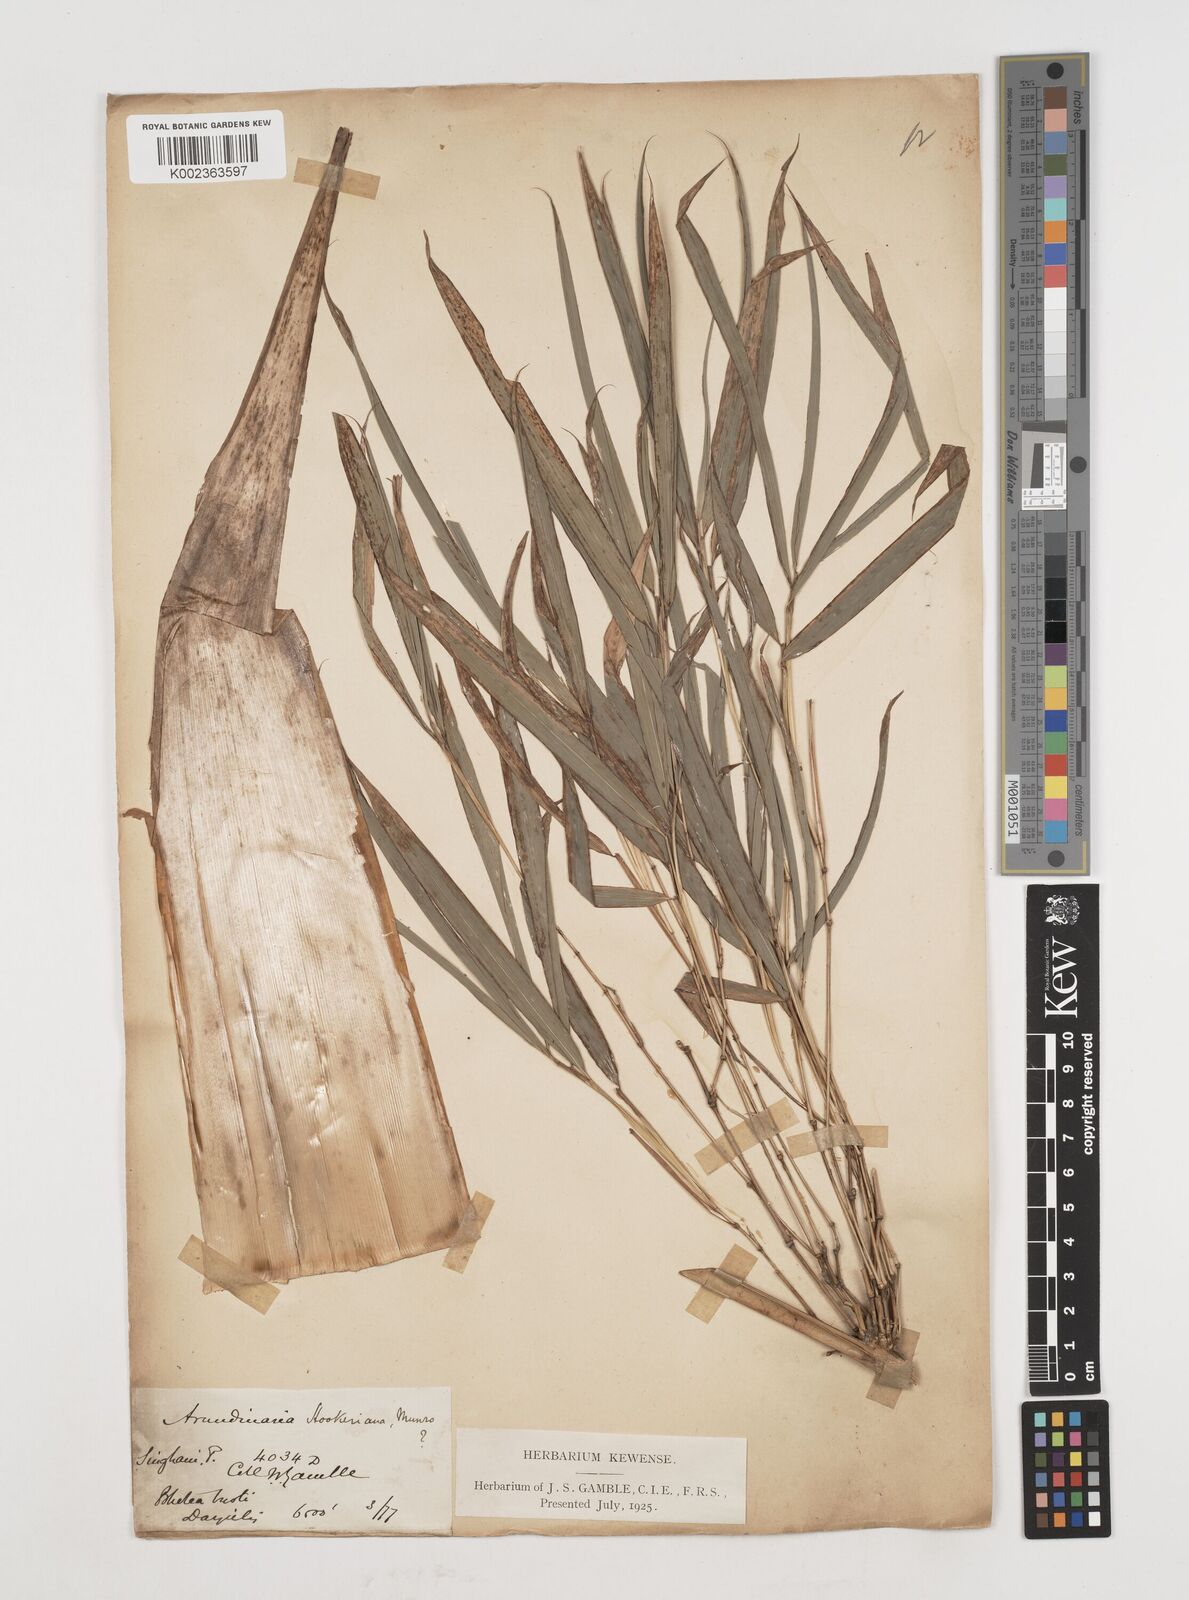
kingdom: Plantae
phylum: Tracheophyta
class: Liliopsida
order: Poales
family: Poaceae
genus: Himalayacalamus
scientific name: Himalayacalamus hookerianus
